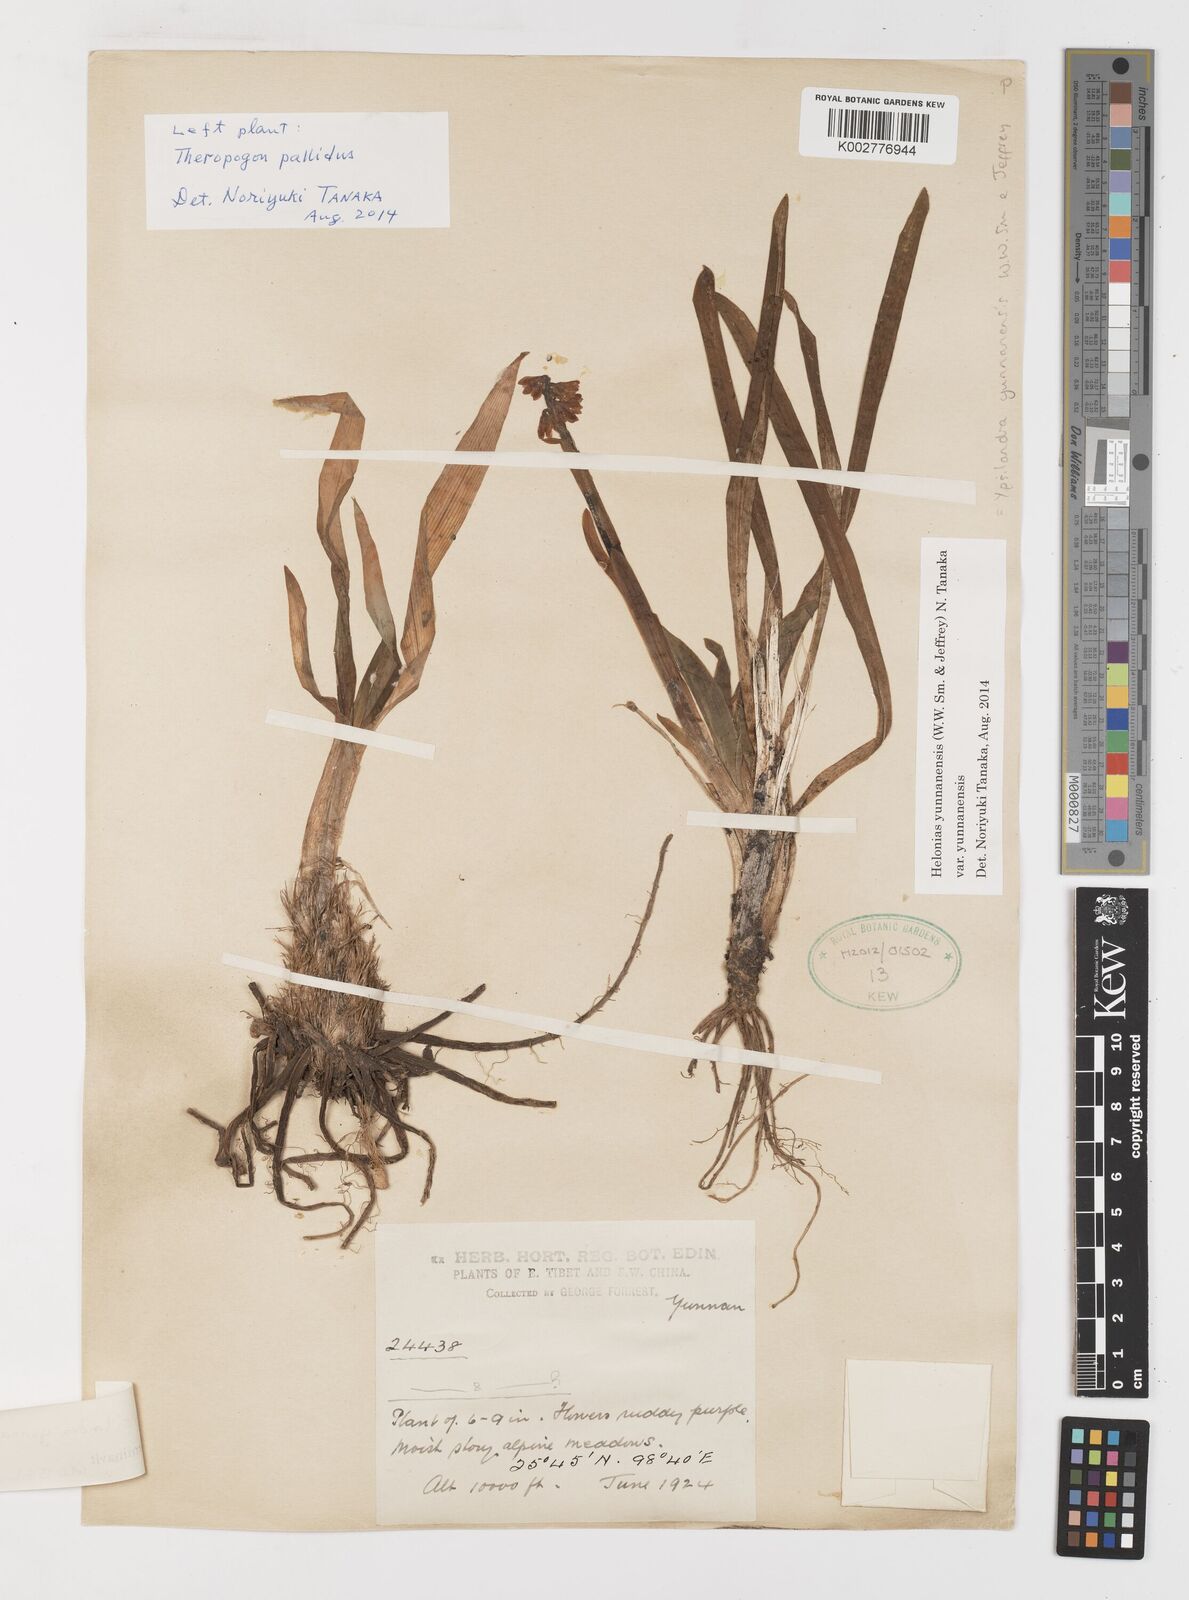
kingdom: Plantae
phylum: Tracheophyta
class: Liliopsida
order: Liliales
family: Melanthiaceae
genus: Helonias
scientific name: Helonias yunnanensis
